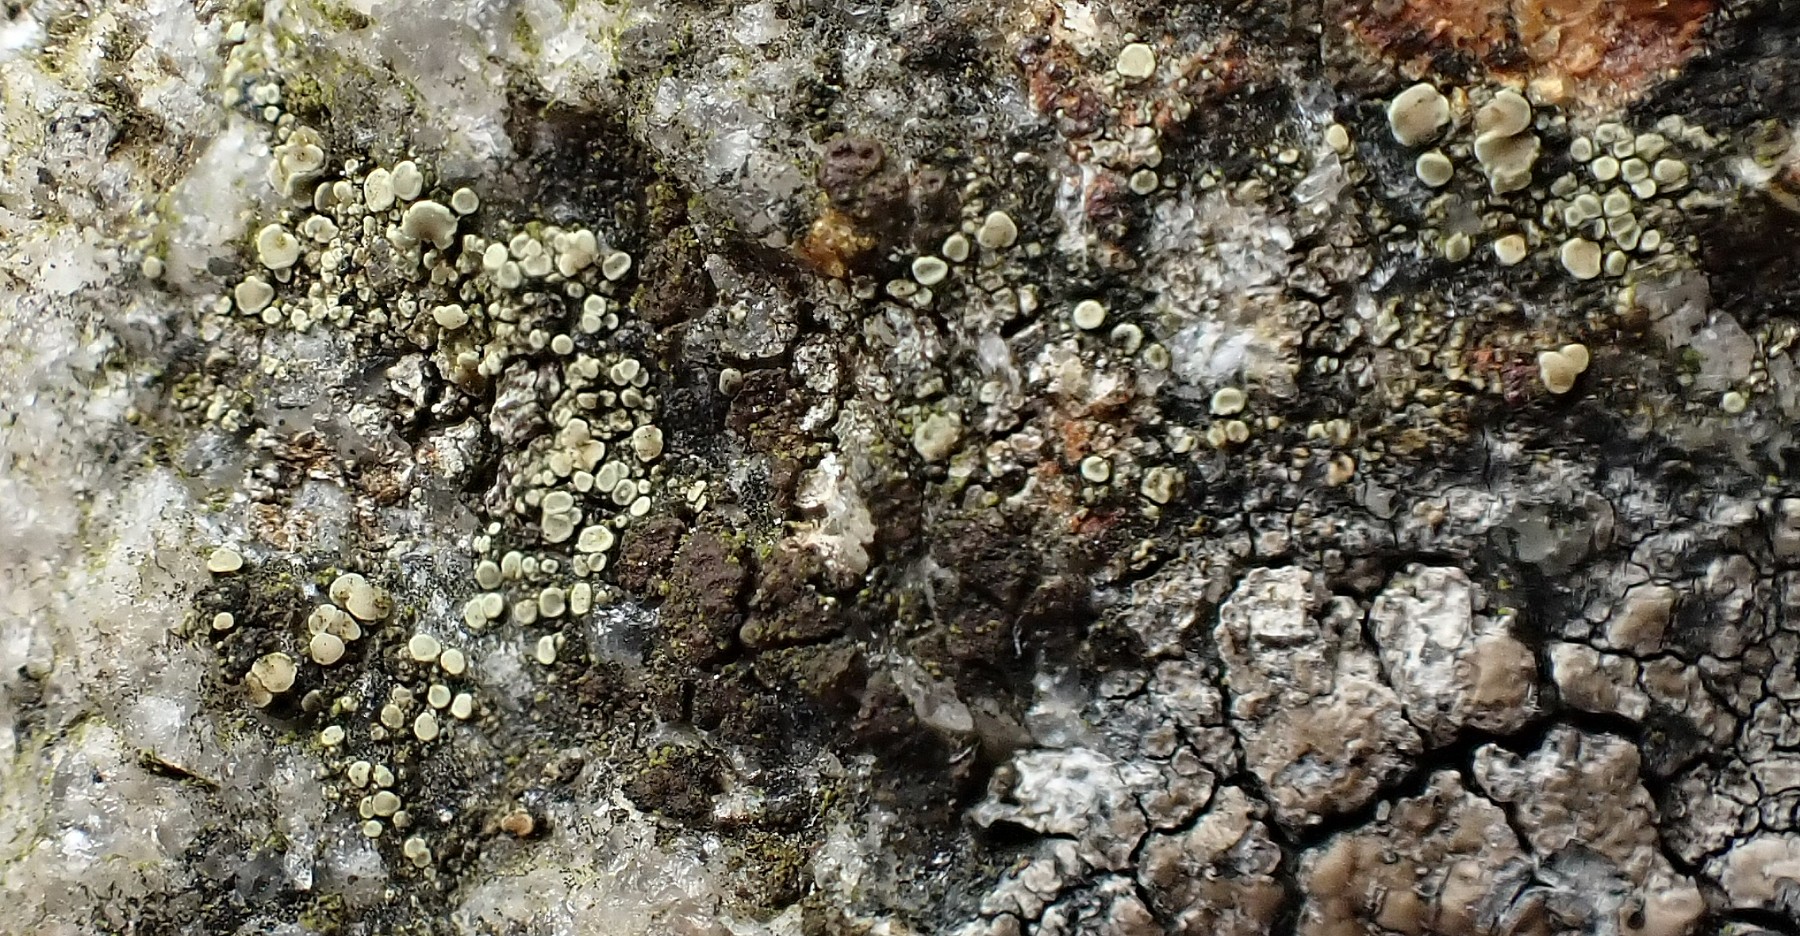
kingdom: Fungi
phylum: Ascomycota
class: Lecanoromycetes
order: Lecanorales
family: Lecanoraceae
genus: Lecanora
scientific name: Lecanora polytropa
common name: bleggrøn kantskivelav
